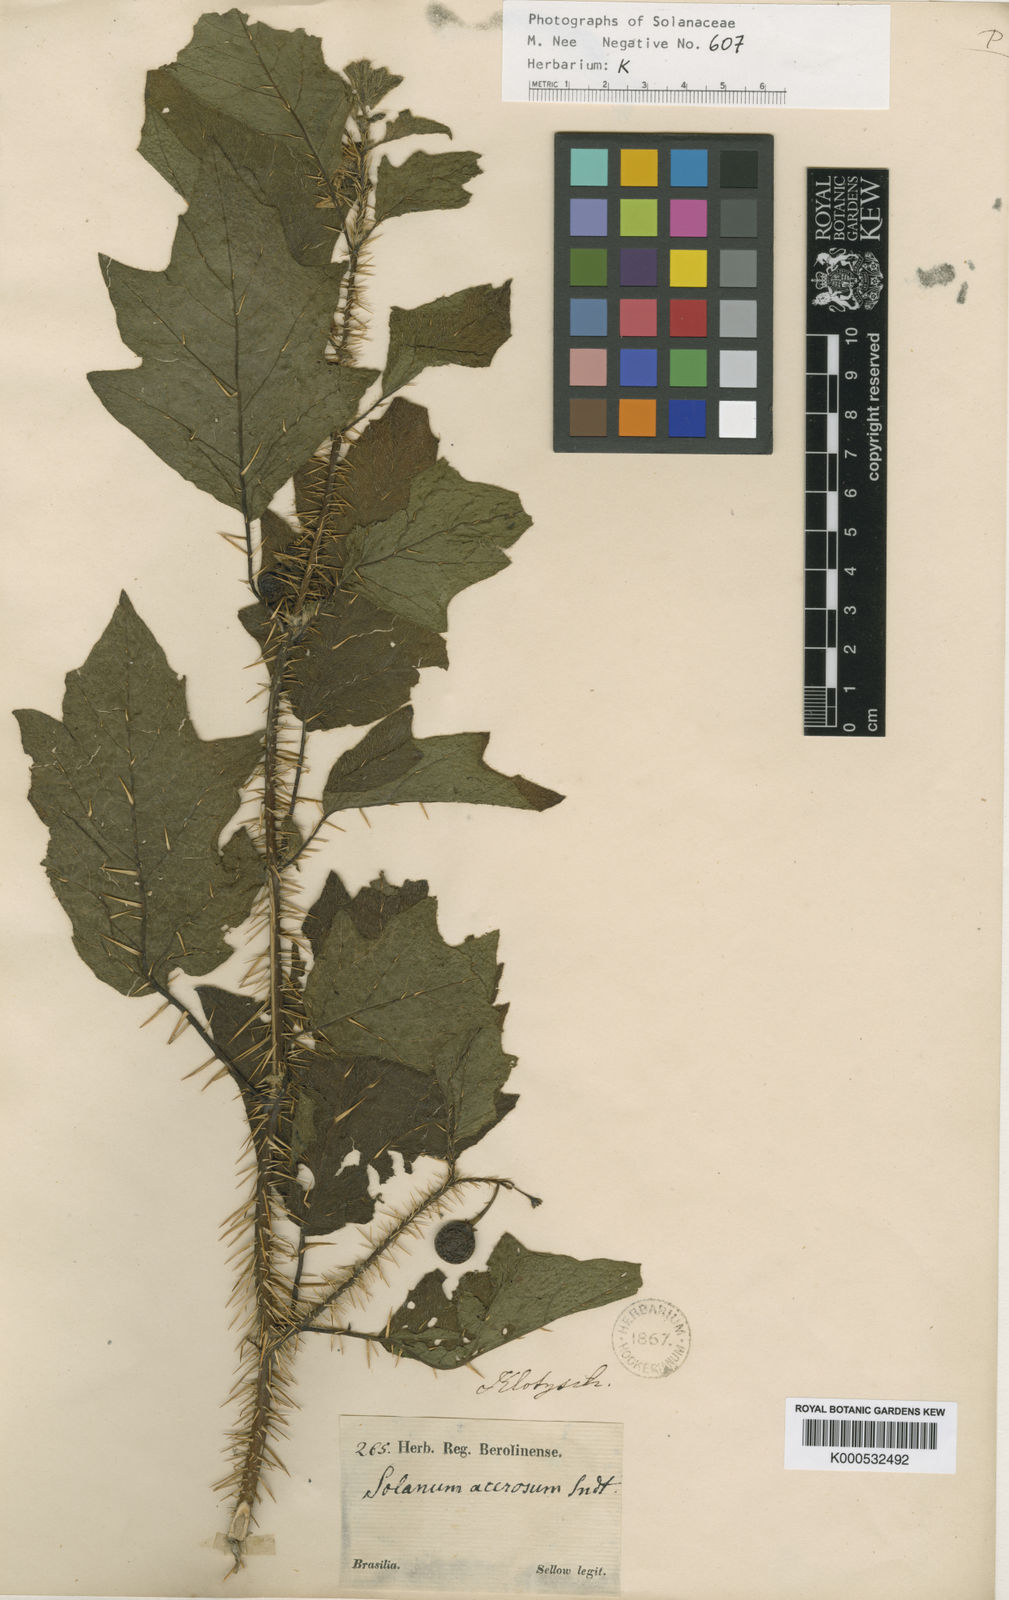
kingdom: Plantae
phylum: Tracheophyta
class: Magnoliopsida
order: Solanales
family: Solanaceae
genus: Solanum
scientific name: Solanum acerifolium
